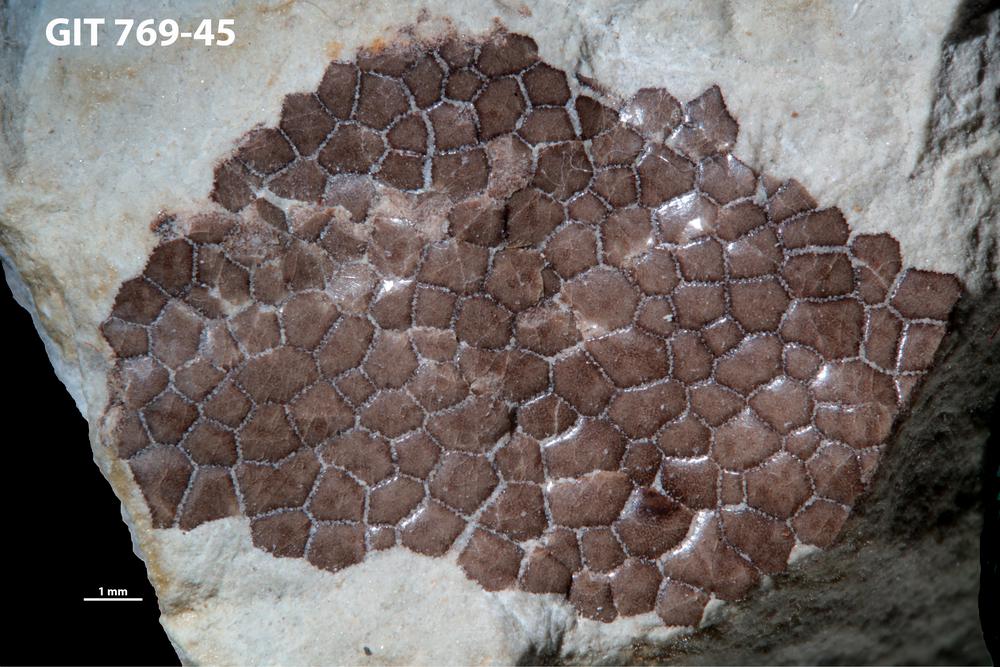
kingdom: Animalia
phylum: Chordata
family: Dartmuthiidae
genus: Dartmuthia
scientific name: Dartmuthia
